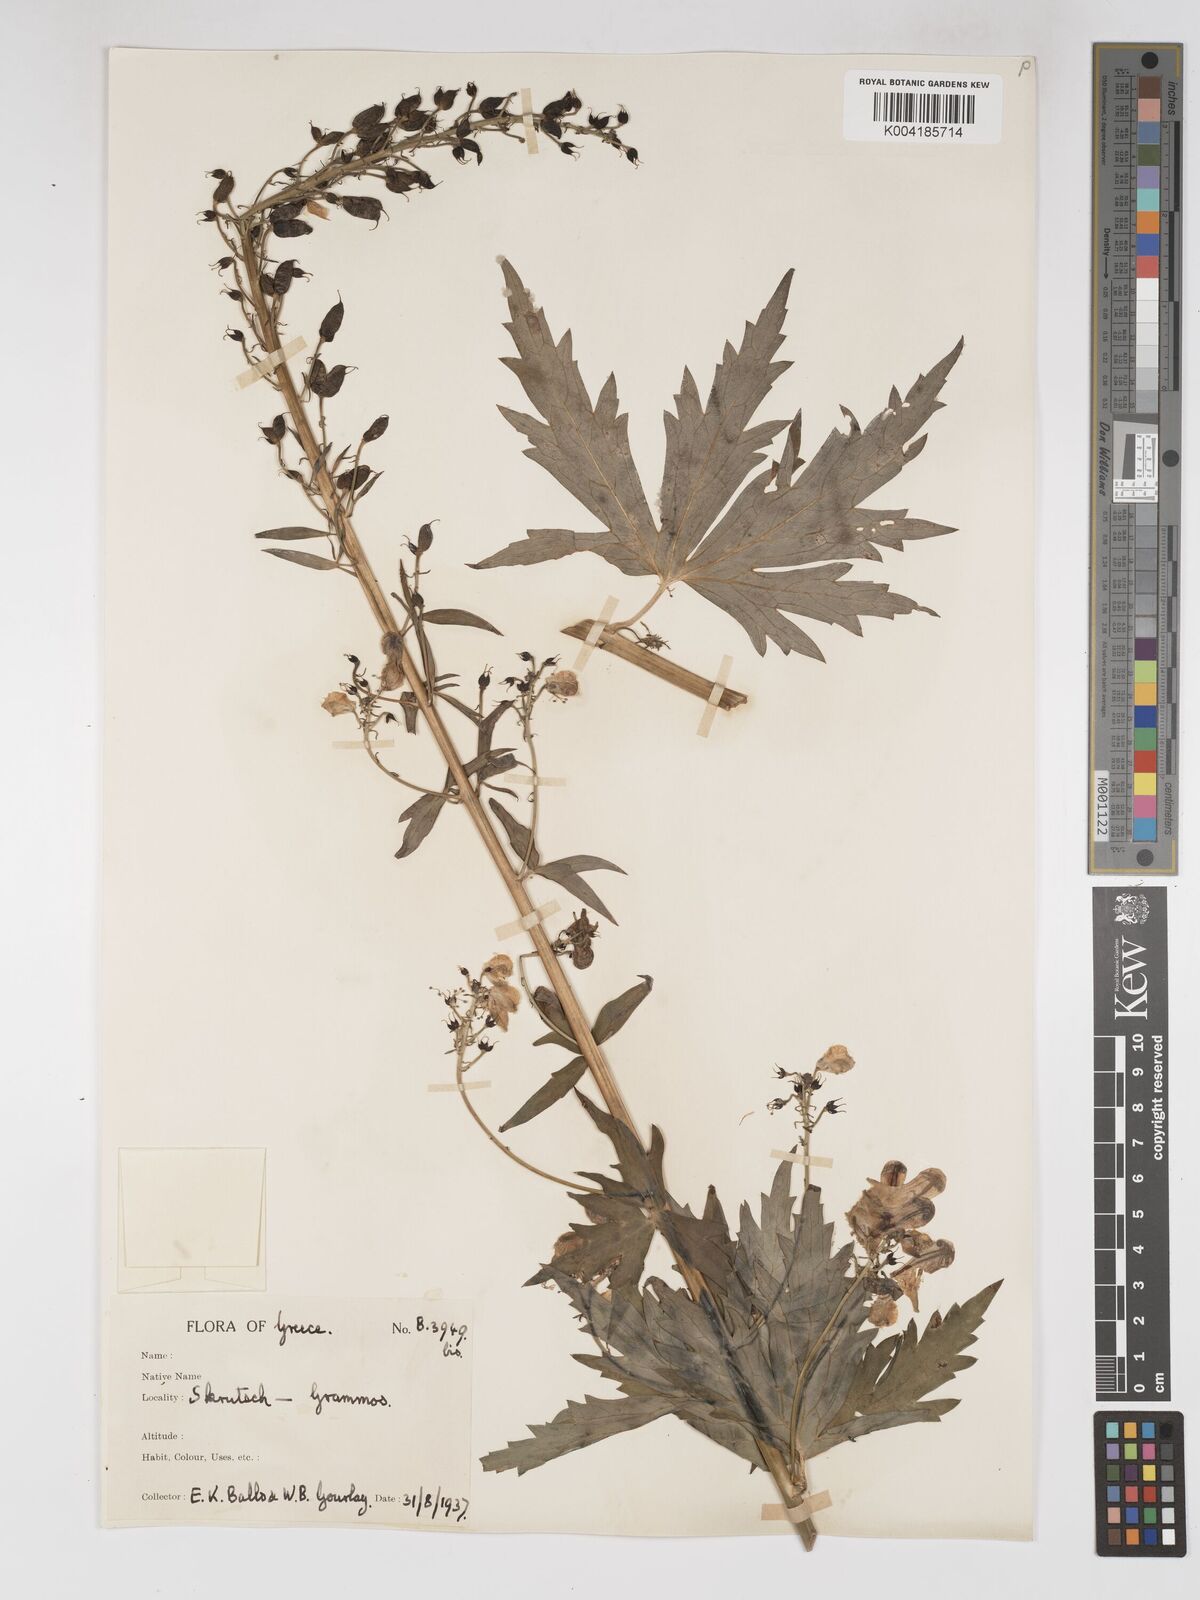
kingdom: Plantae
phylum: Tracheophyta
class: Magnoliopsida
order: Ranunculales
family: Ranunculaceae
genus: Aconitum
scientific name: Aconitum lycoctonum
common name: Wolf's-bane
